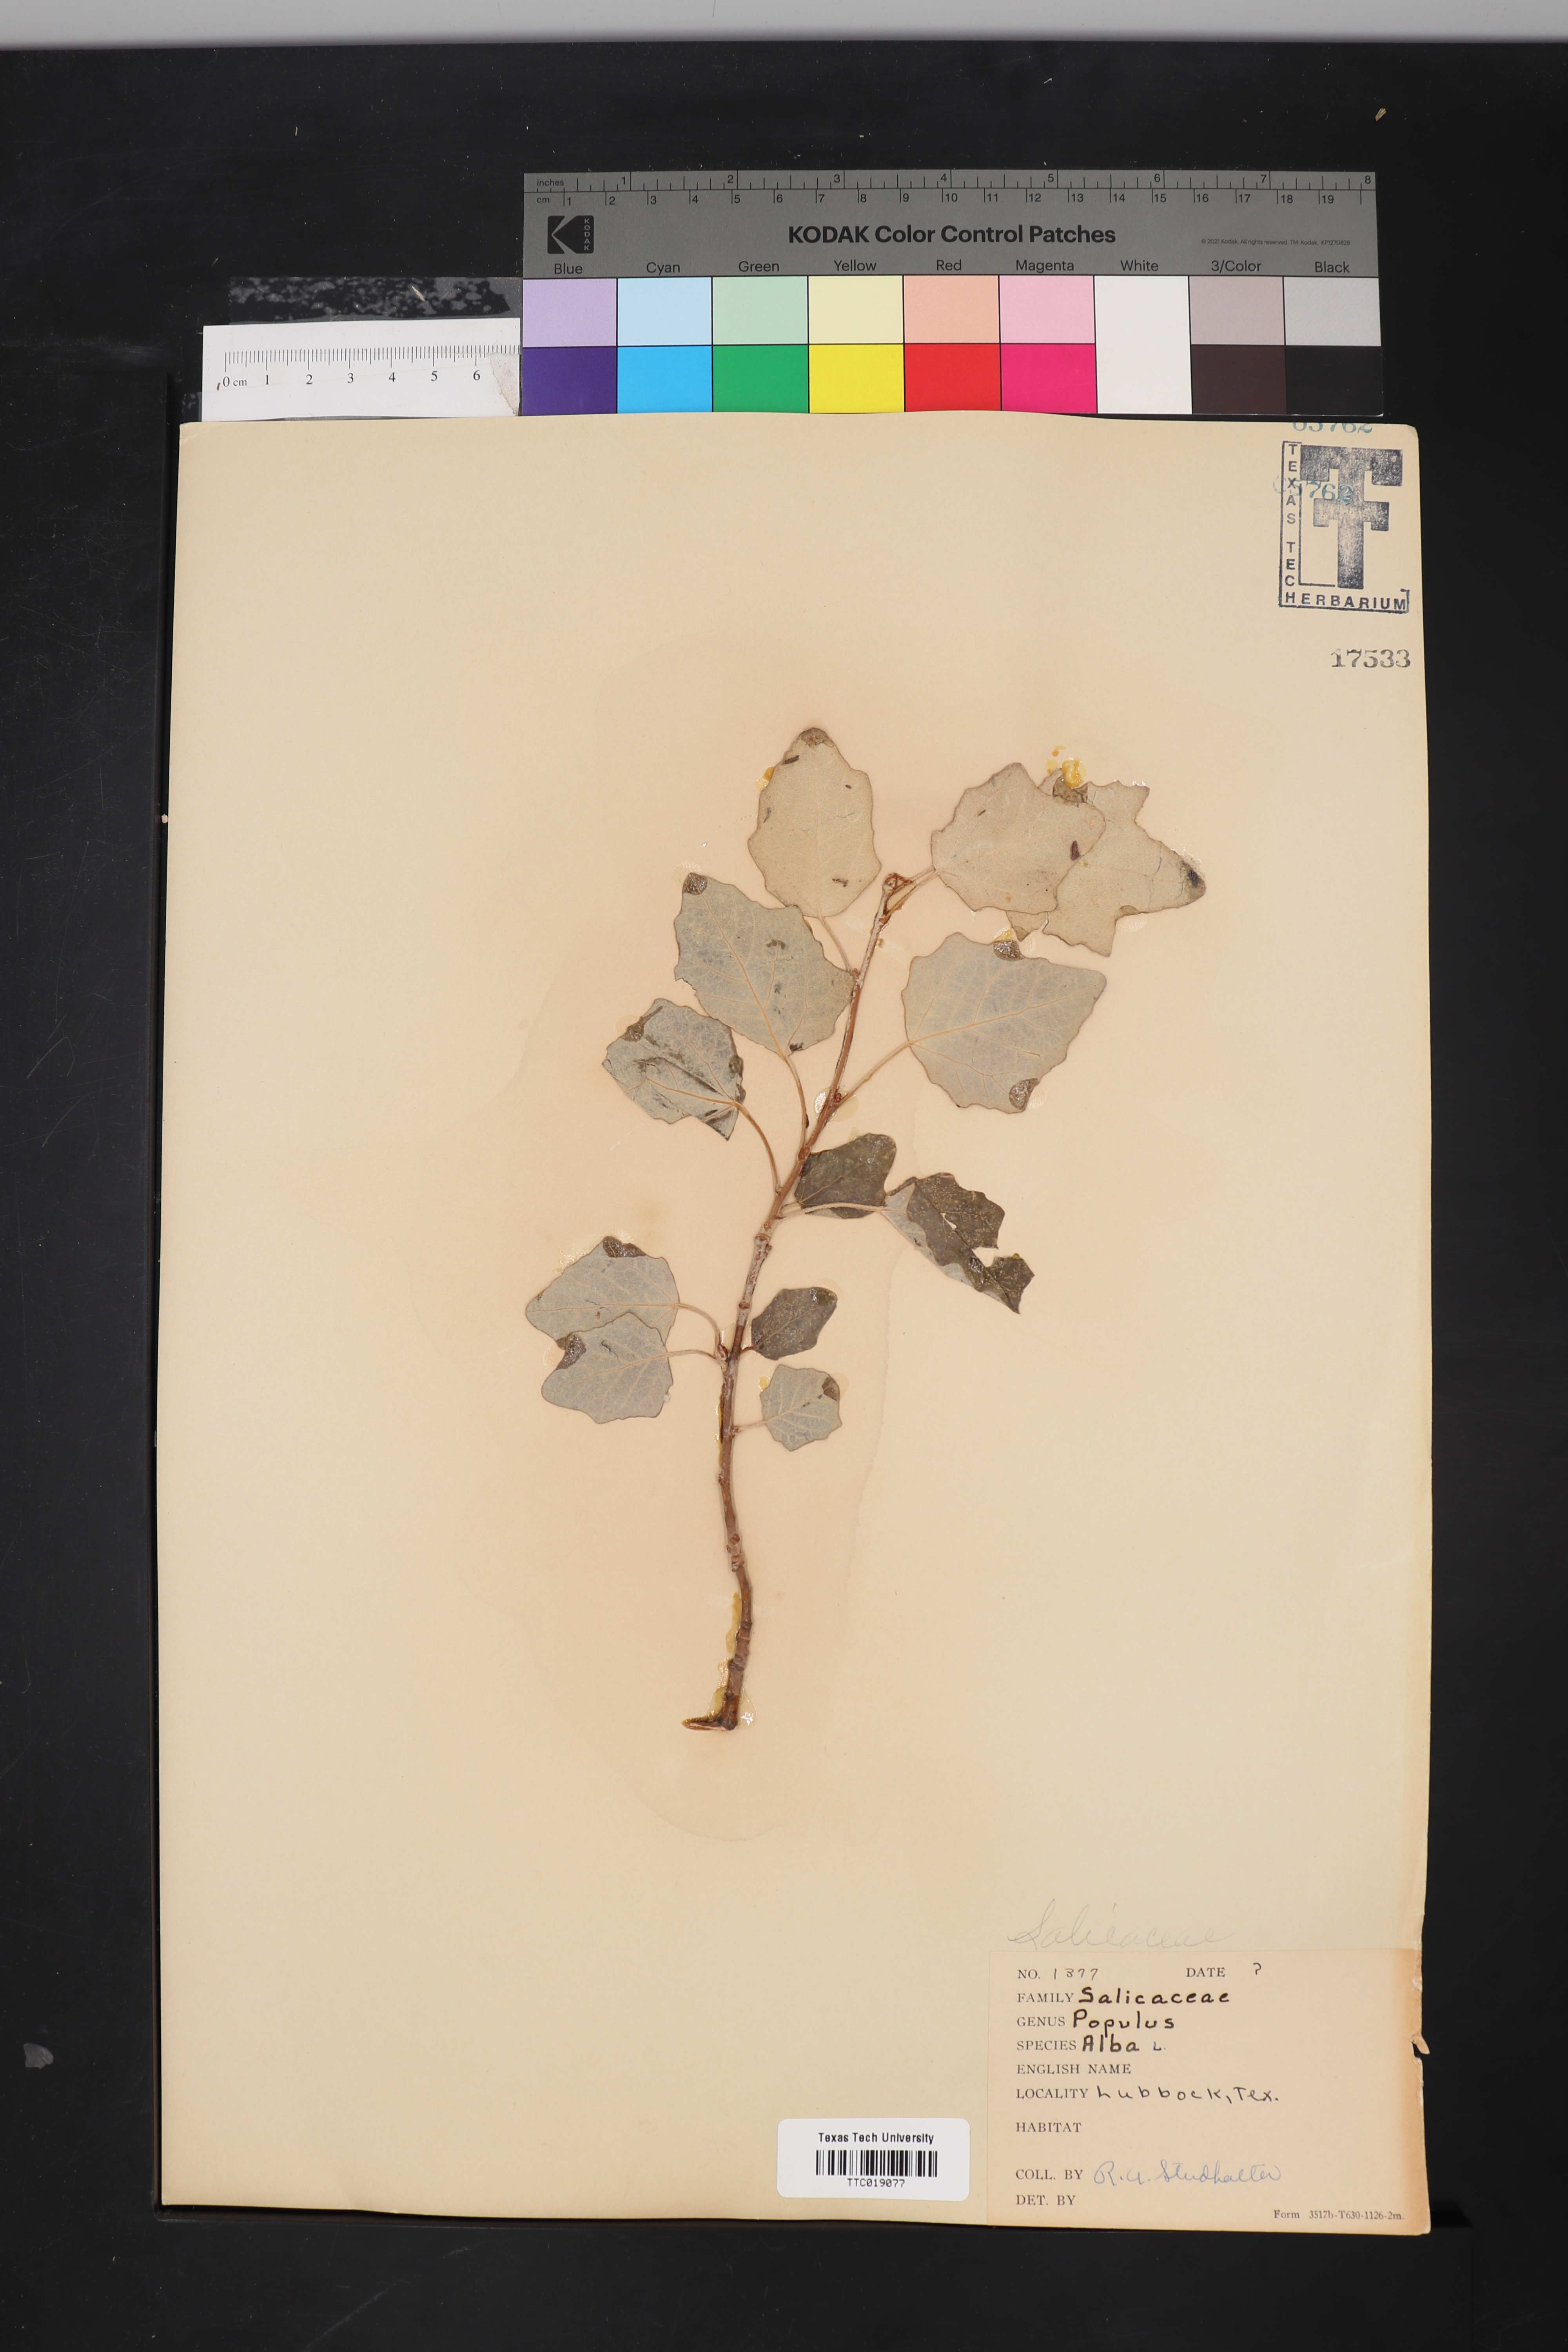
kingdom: Plantae
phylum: Tracheophyta
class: Magnoliopsida
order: Malpighiales
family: Salicaceae
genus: Populus
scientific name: Populus alba
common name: White poplar
